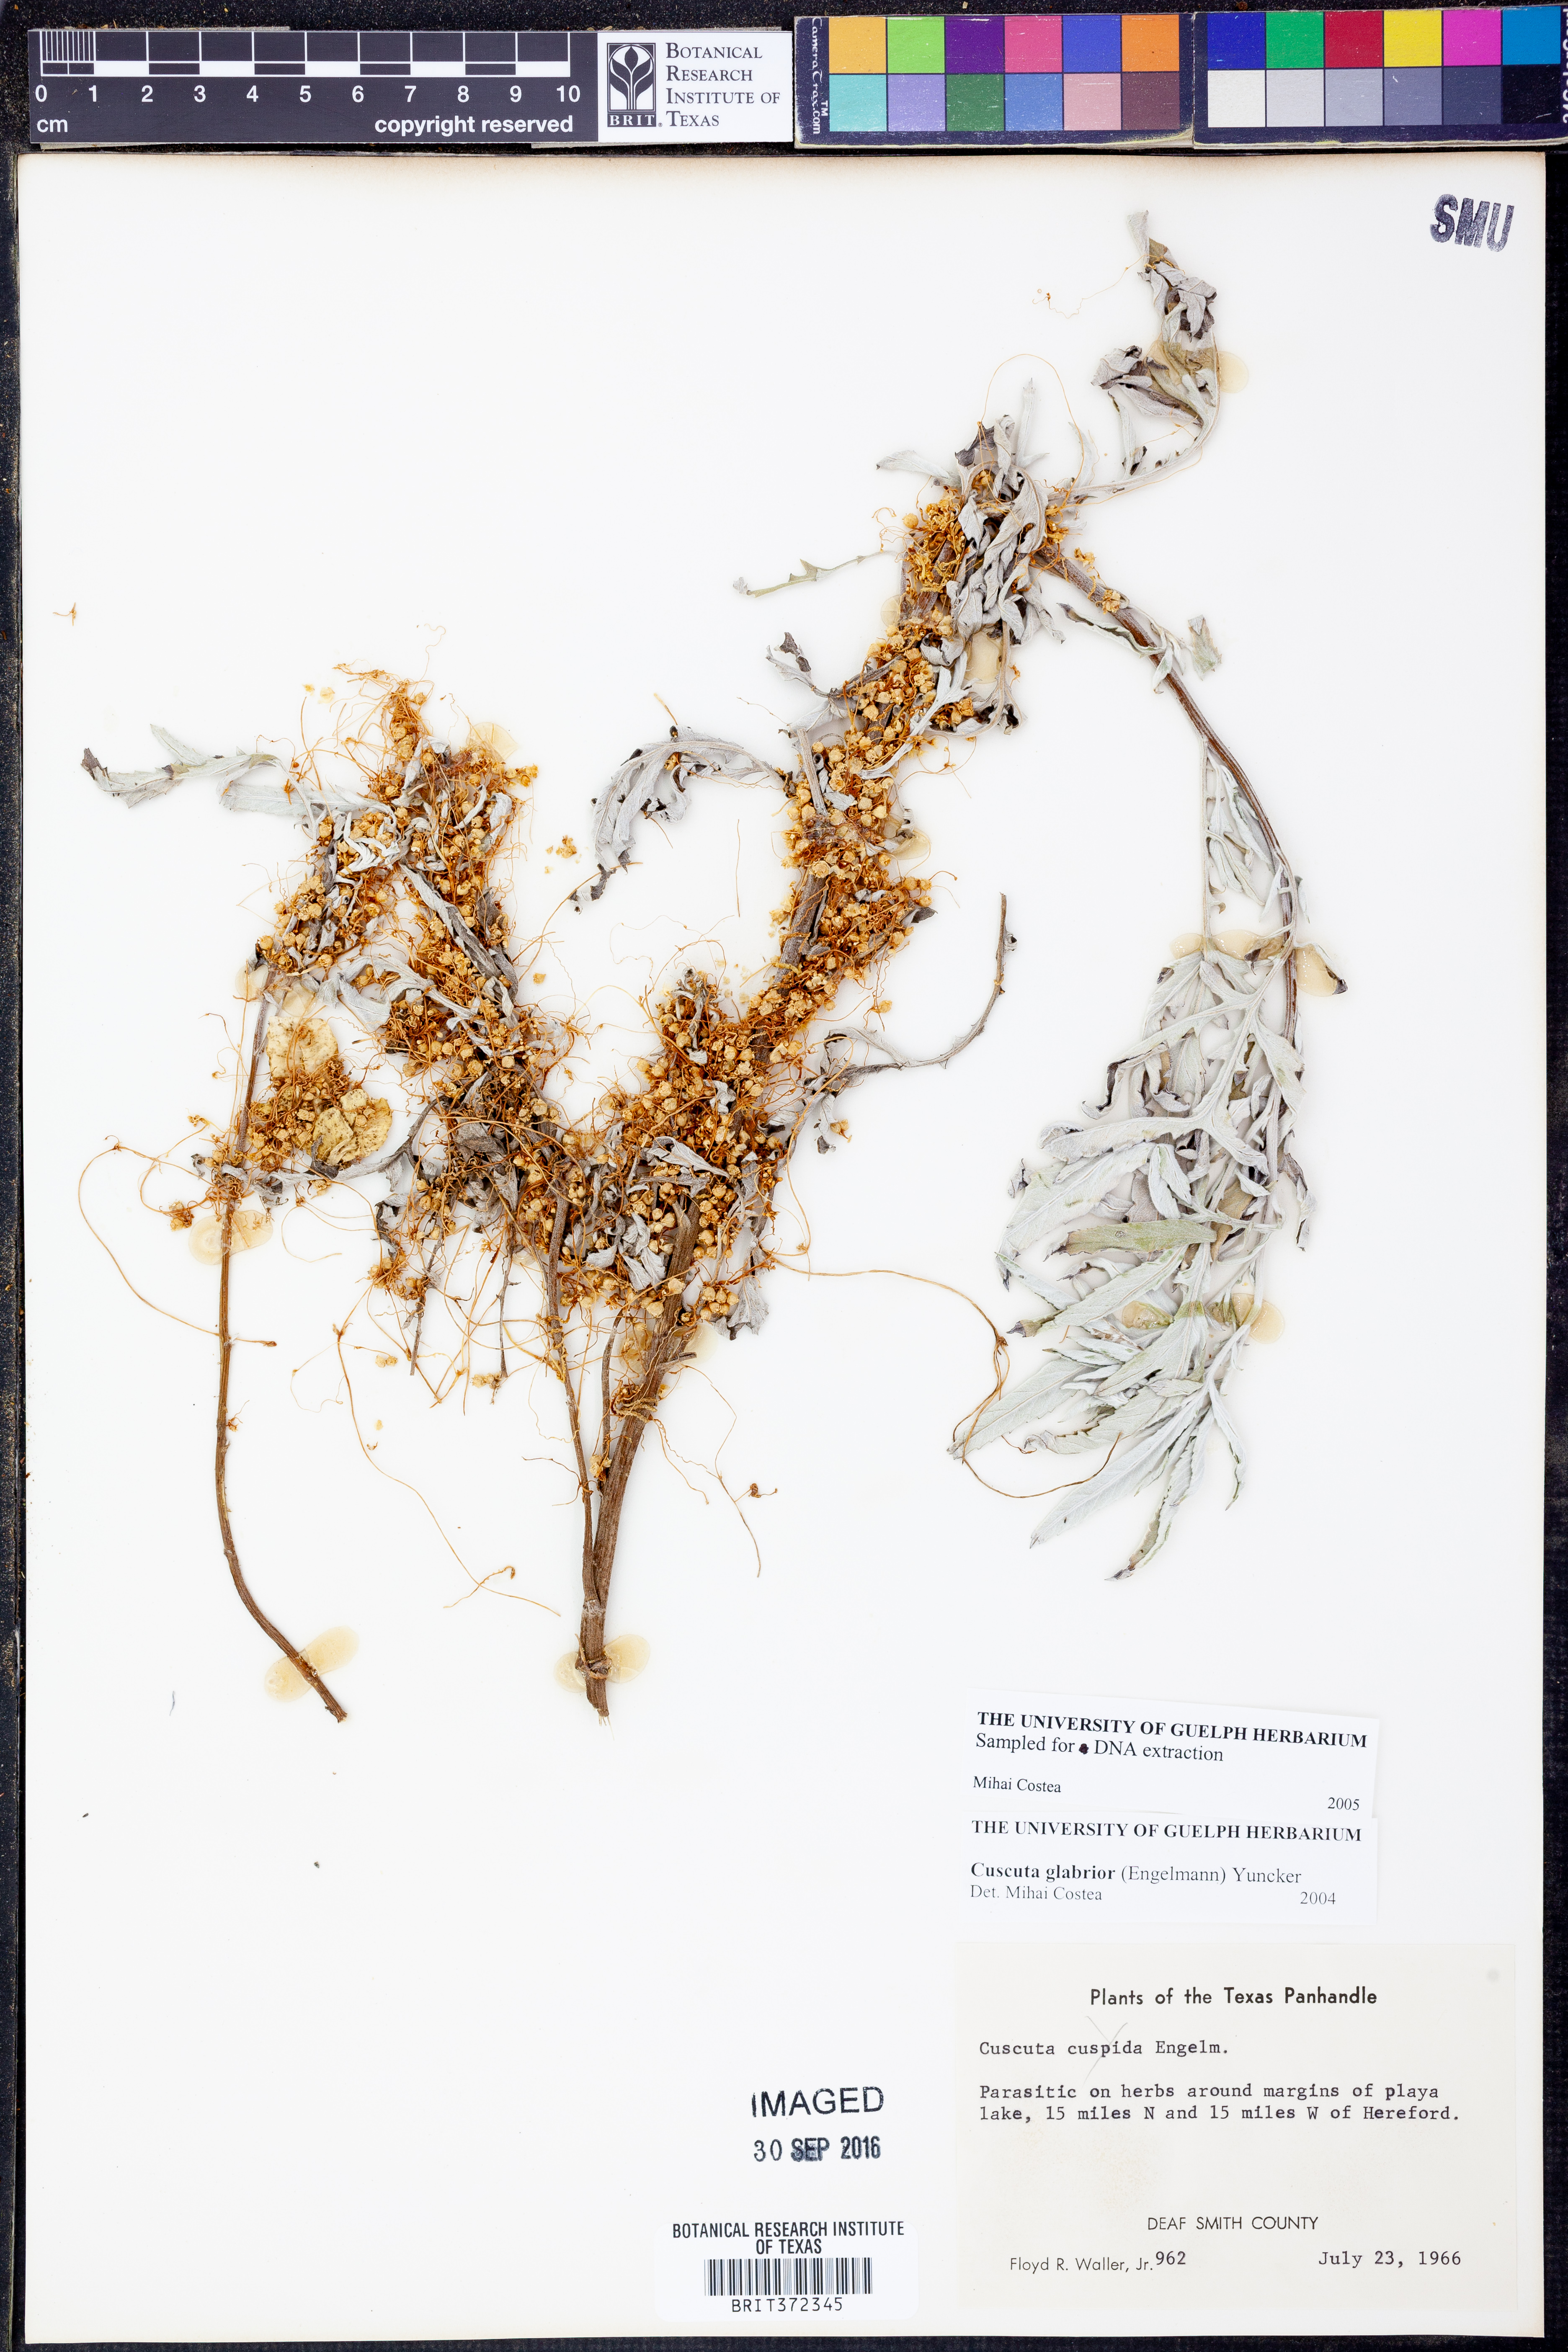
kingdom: Plantae
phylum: Tracheophyta
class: Magnoliopsida
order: Solanales
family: Convolvulaceae
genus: Cuscuta
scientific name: Cuscuta glabrior
